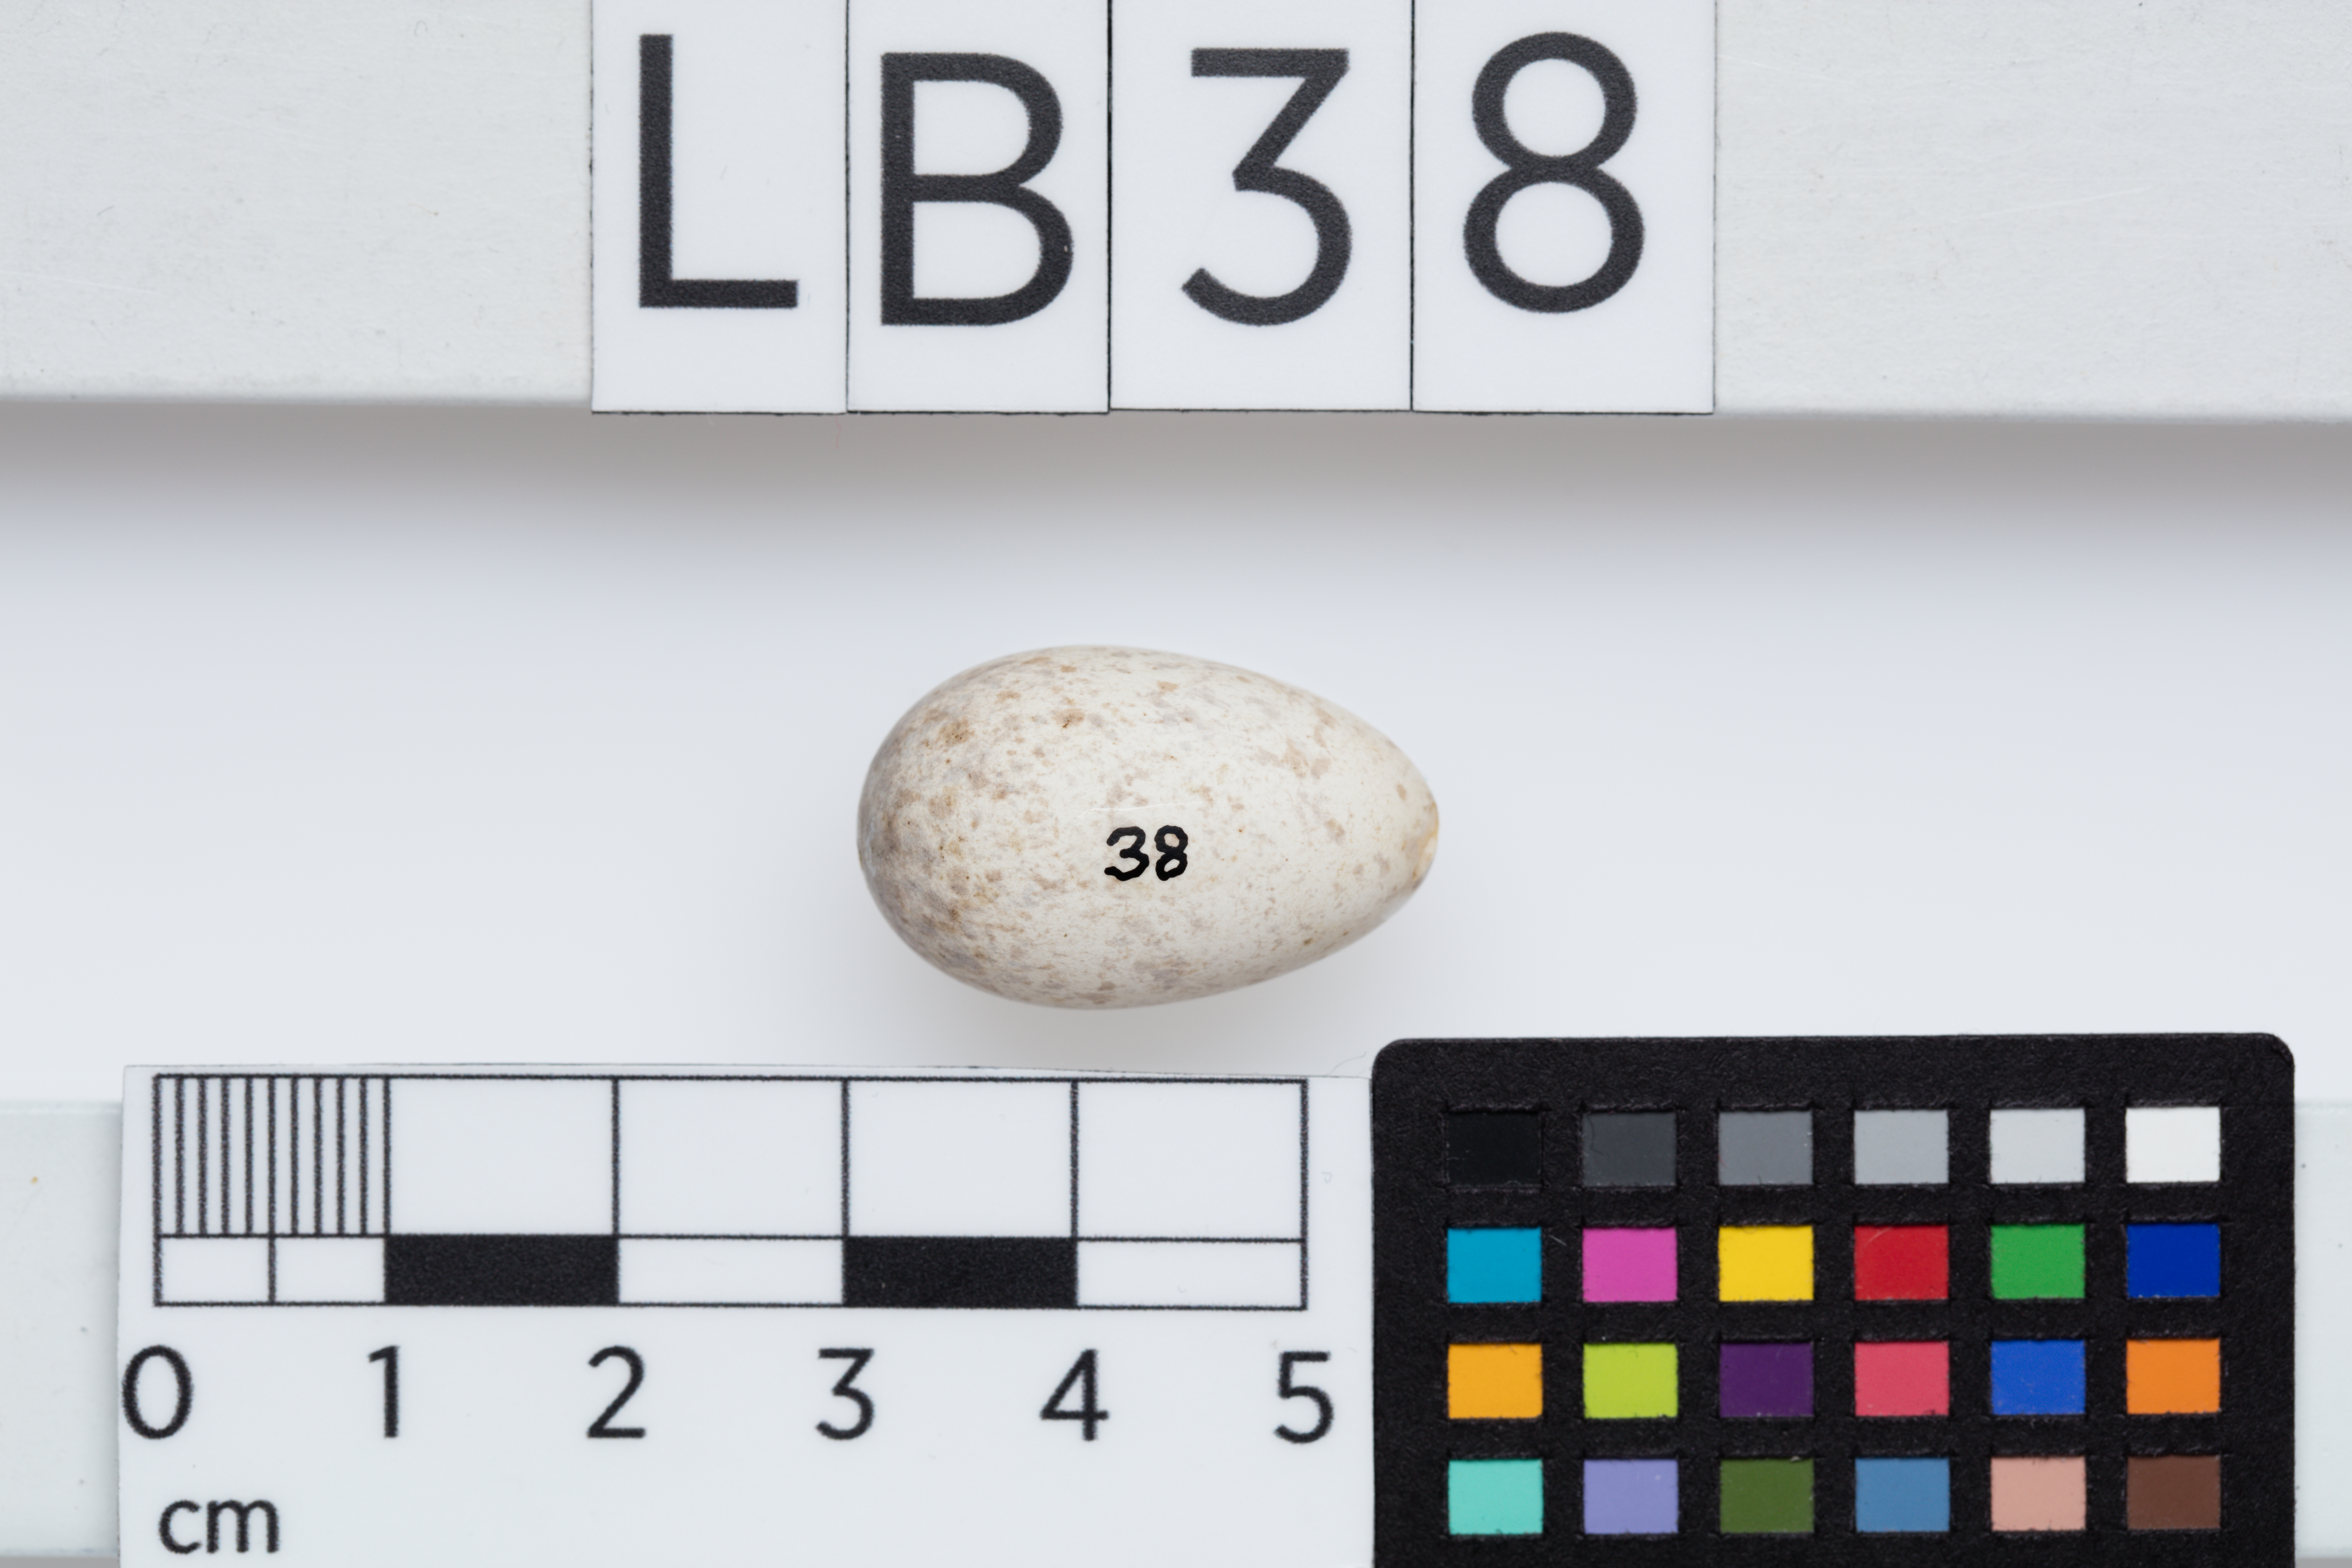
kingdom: Animalia
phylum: Chordata
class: Aves
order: Passeriformes
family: Petroicidae
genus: Petroica
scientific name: Petroica traversi
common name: Black robin
